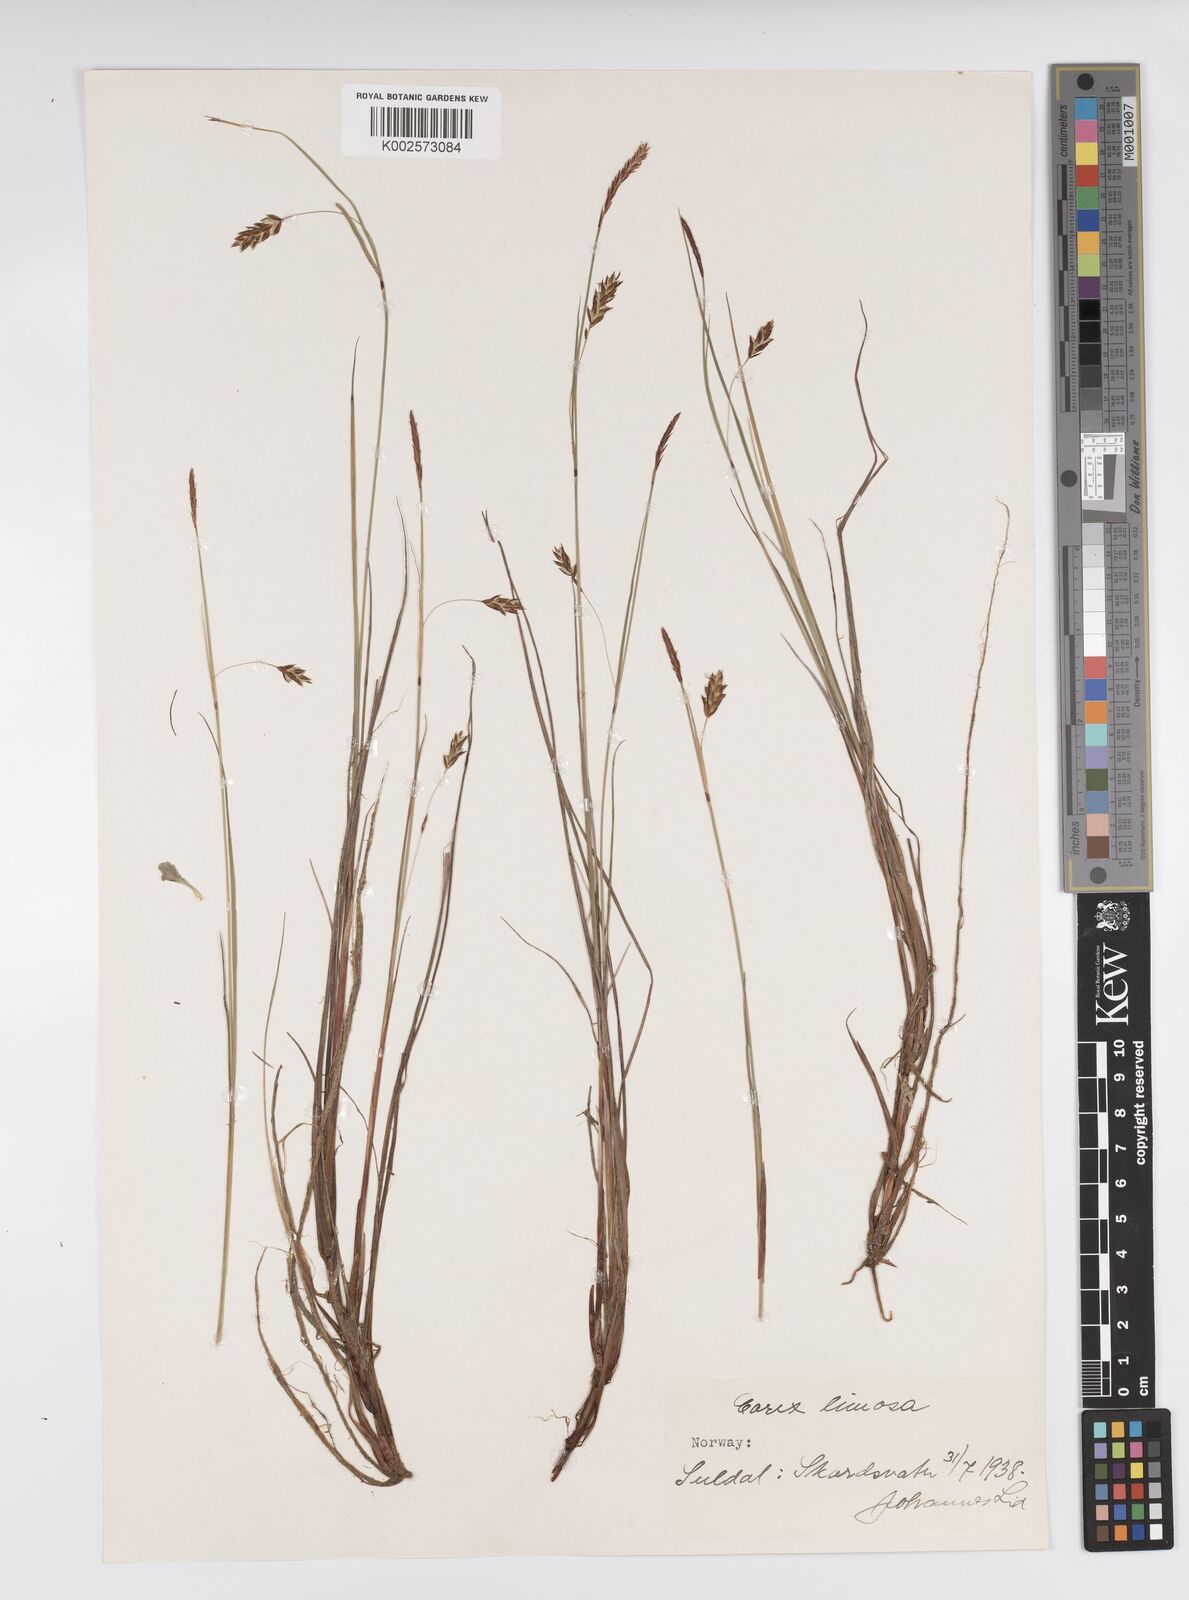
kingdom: Plantae
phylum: Tracheophyta
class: Liliopsida
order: Poales
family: Cyperaceae
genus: Carex
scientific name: Carex limosa
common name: Bog sedge
